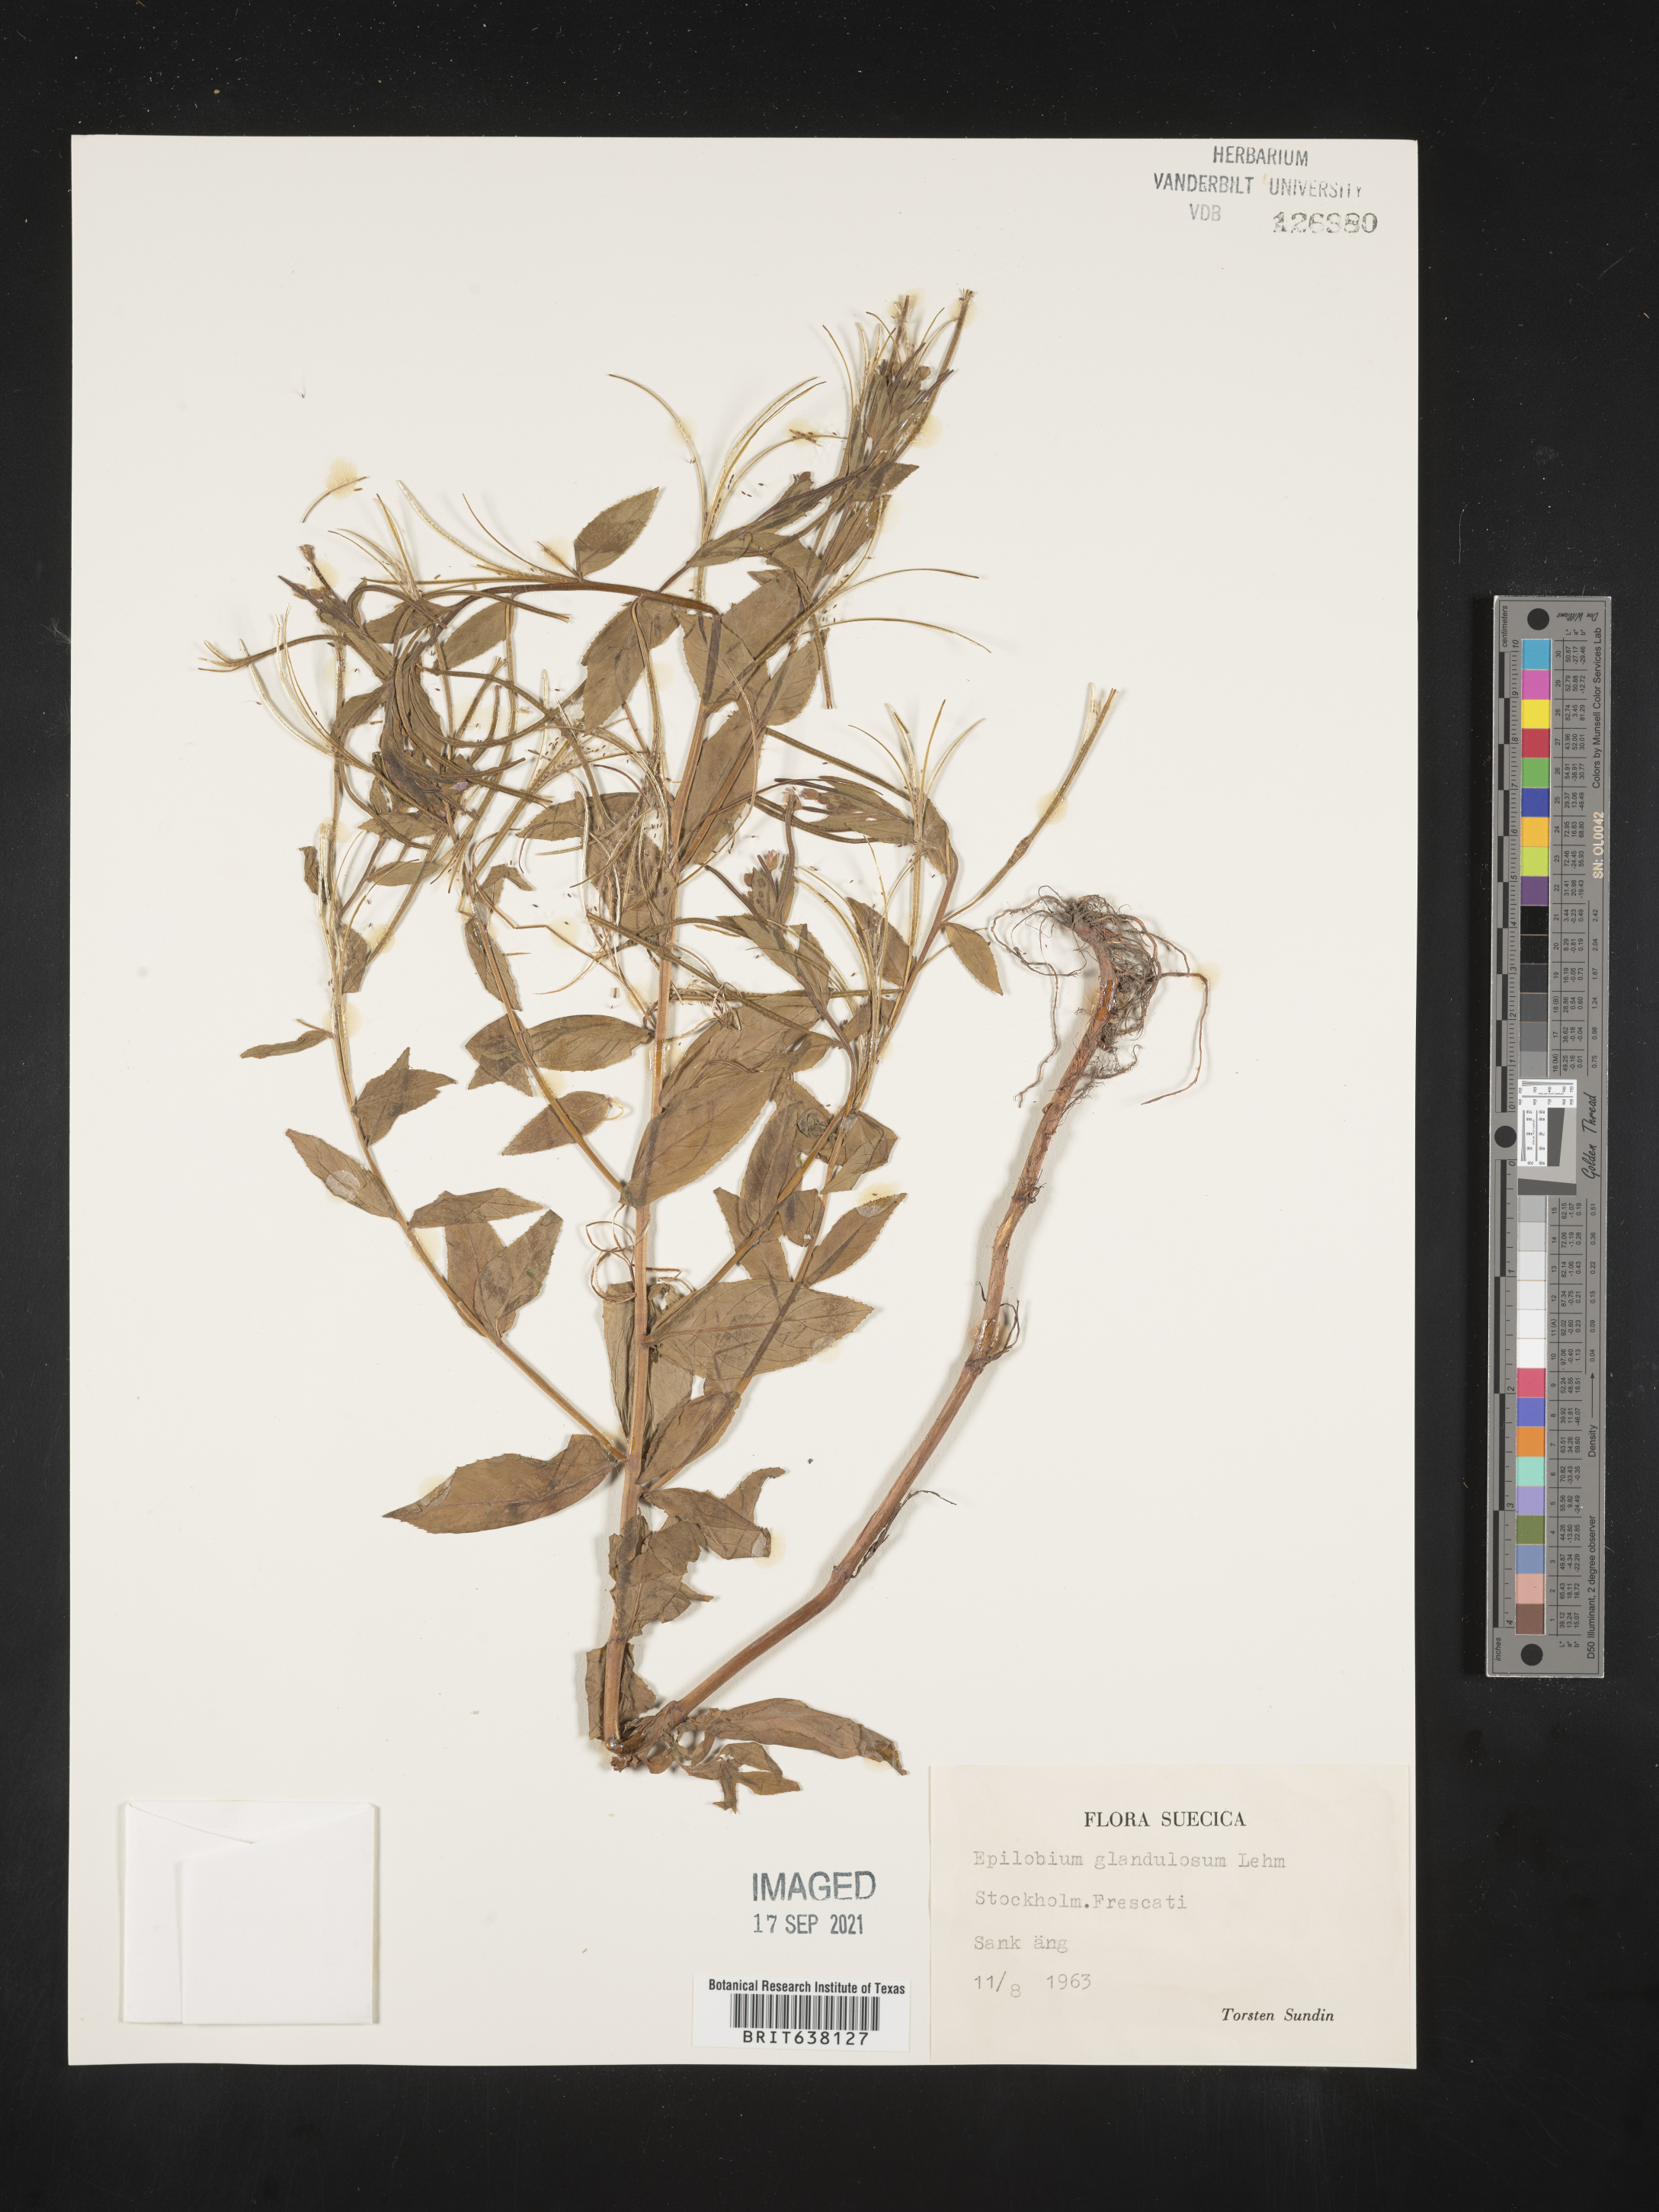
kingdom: Plantae
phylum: Tracheophyta
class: Magnoliopsida
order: Myrtales
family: Onagraceae
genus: Epilobium
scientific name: Epilobium
